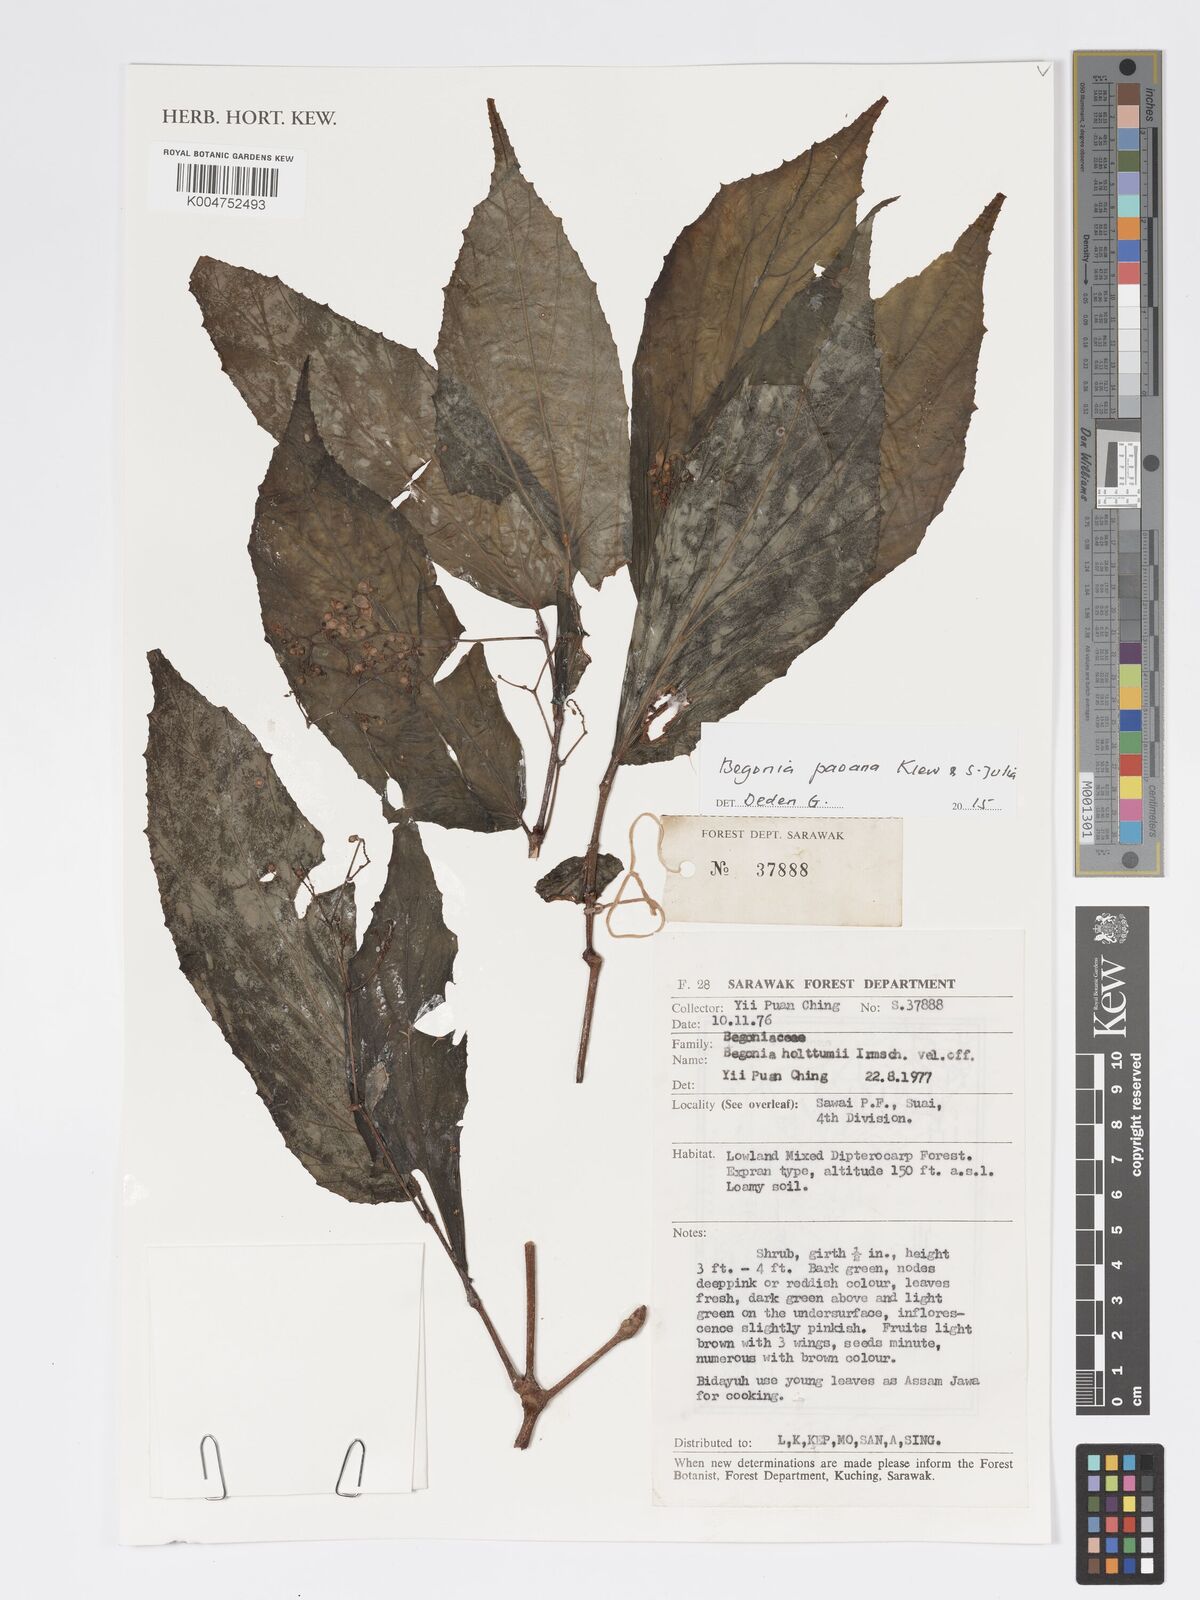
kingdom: Plantae
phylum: Tracheophyta
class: Magnoliopsida
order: Cucurbitales
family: Begoniaceae
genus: Begonia
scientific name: Begonia paoana
